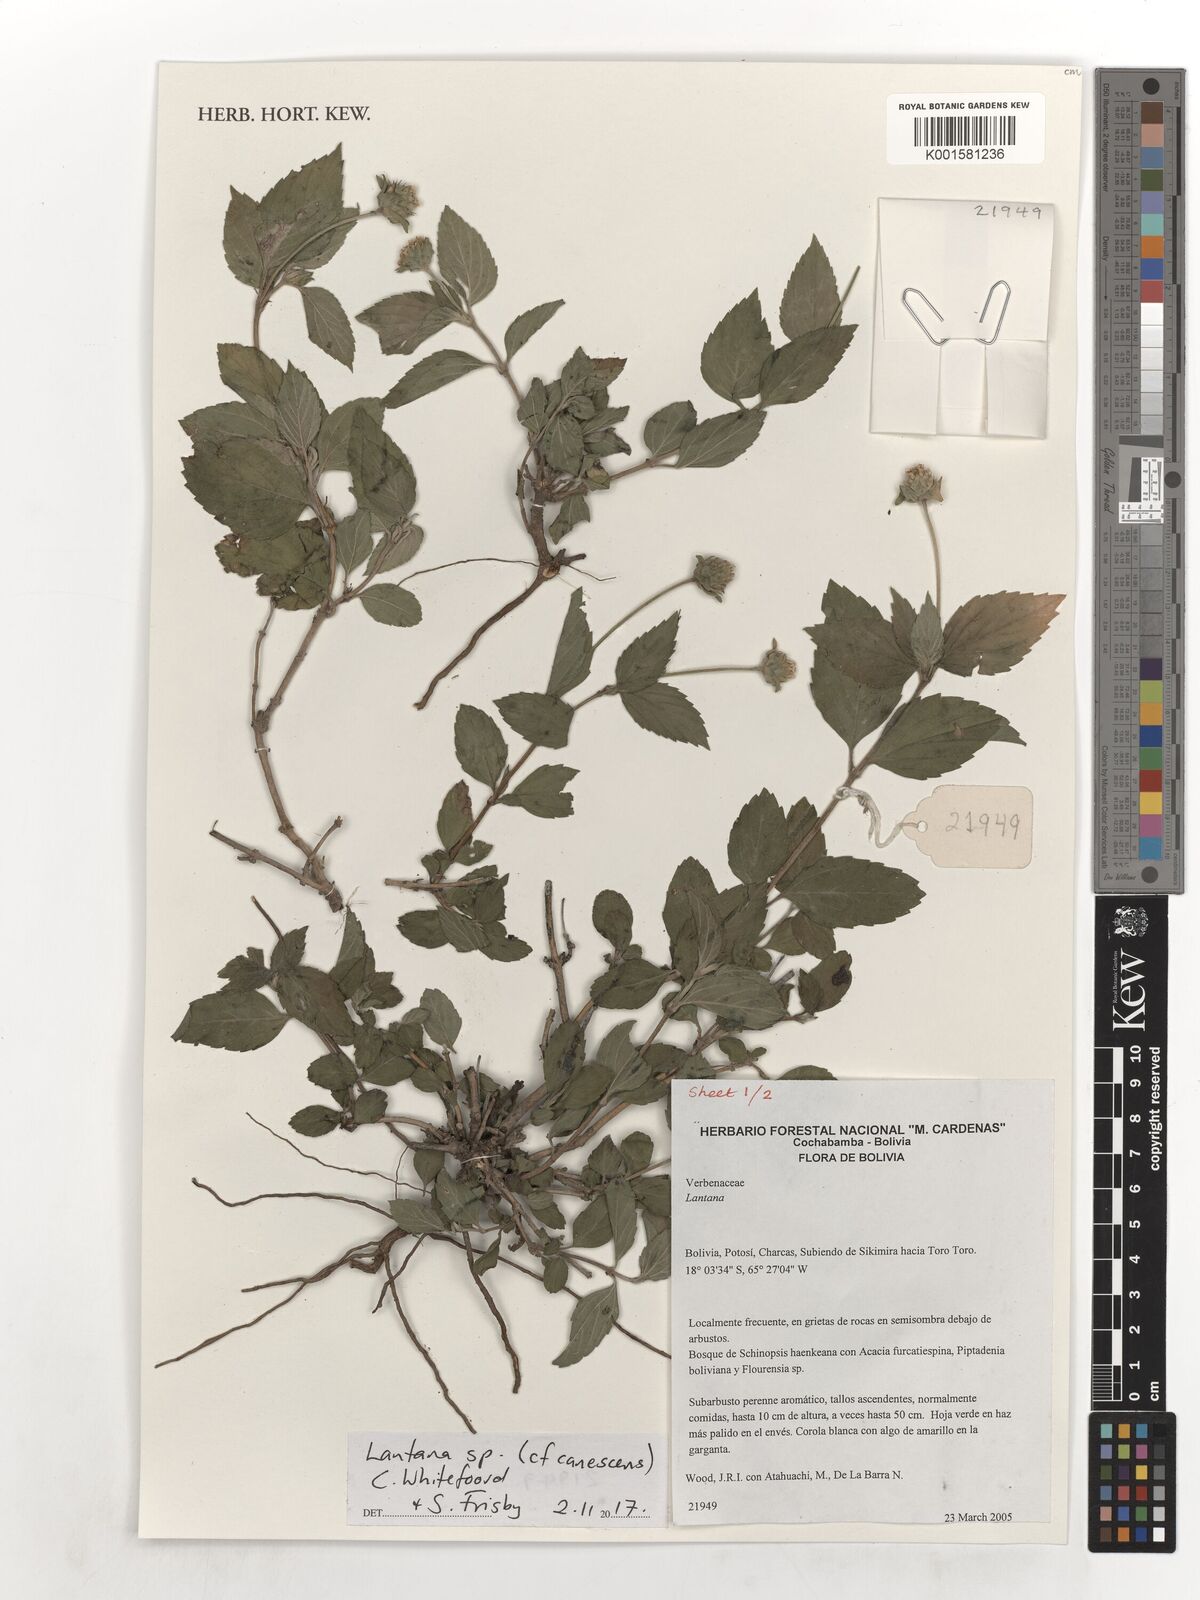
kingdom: Plantae
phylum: Tracheophyta
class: Magnoliopsida
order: Lamiales
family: Verbenaceae
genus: Lantana
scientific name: Lantana canescens
